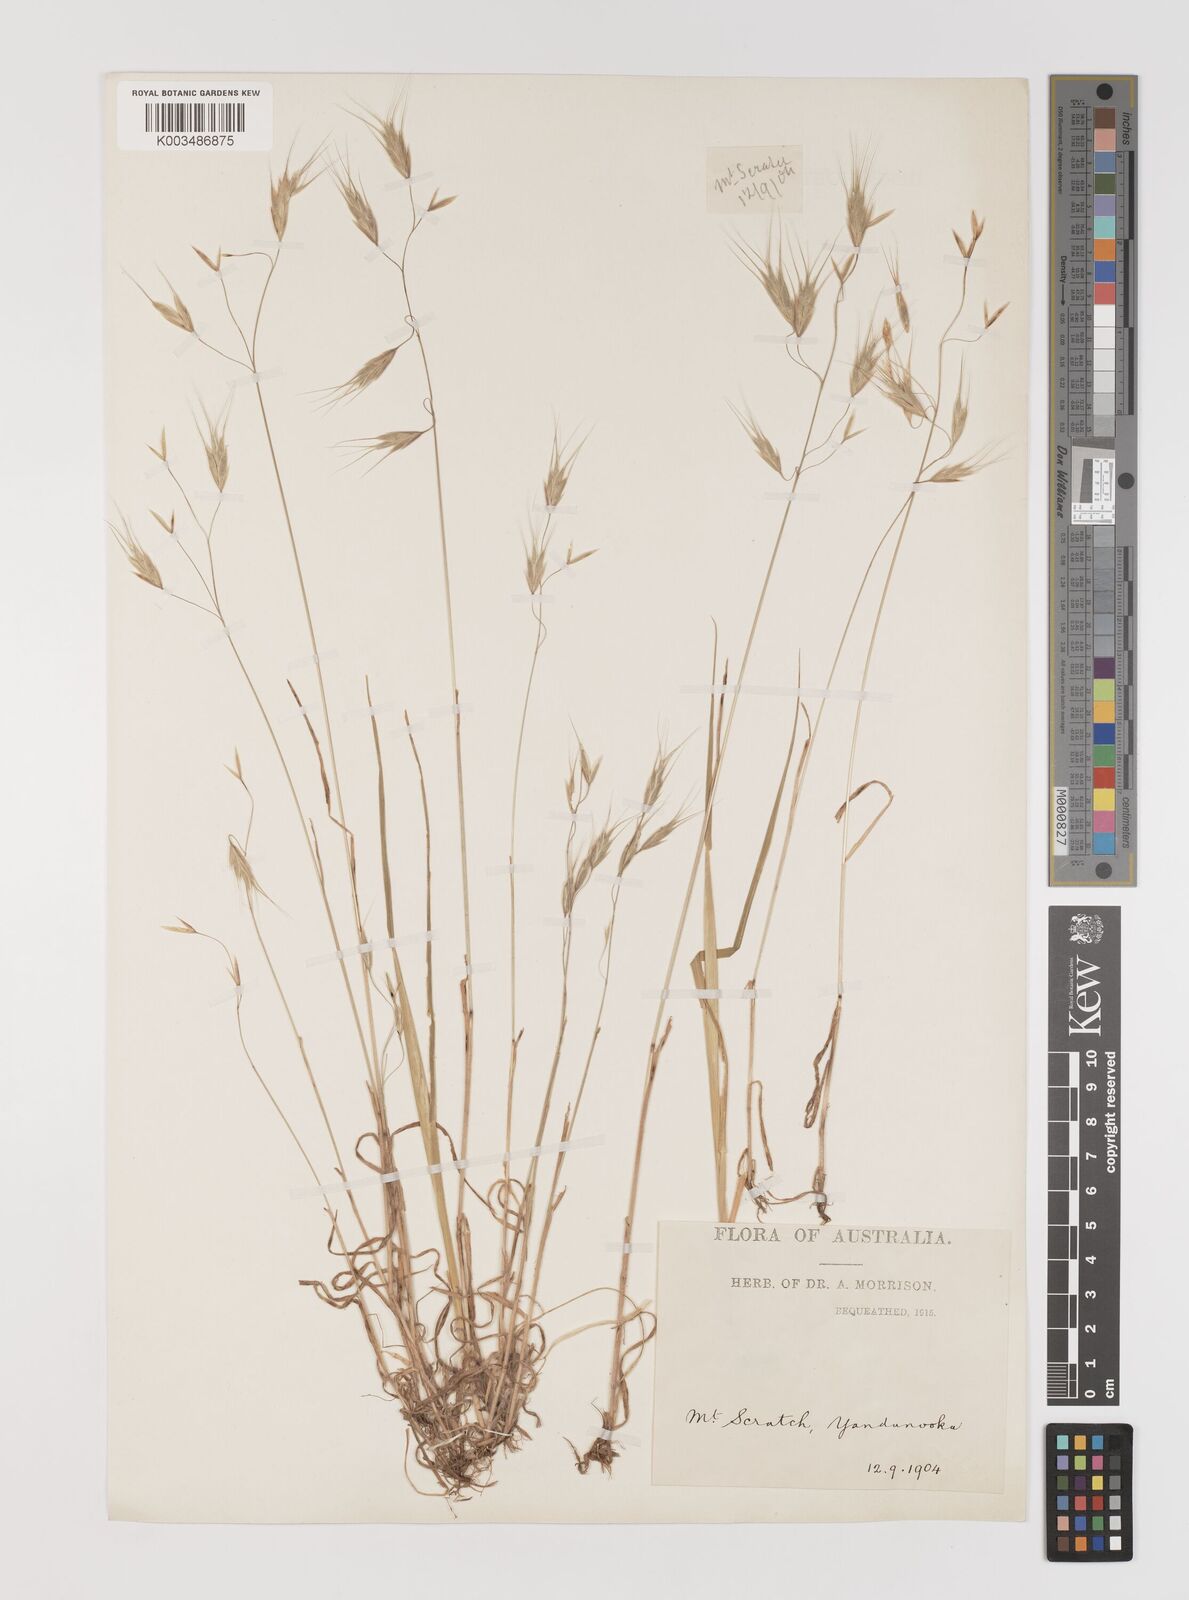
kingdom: Plantae
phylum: Tracheophyta
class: Liliopsida
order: Poales
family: Poaceae
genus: Bromus
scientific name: Bromus arenarius
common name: Australian brome
